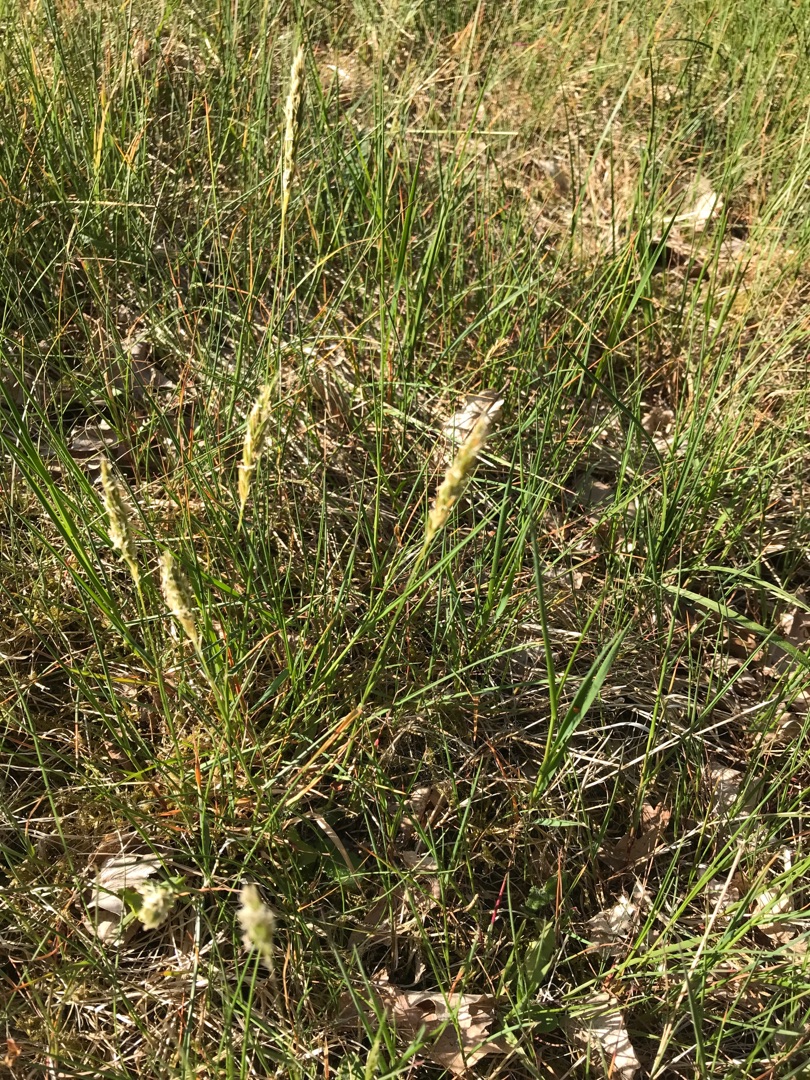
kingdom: Plantae
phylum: Tracheophyta
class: Liliopsida
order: Poales
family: Poaceae
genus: Anthoxanthum
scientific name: Anthoxanthum odoratum
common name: Vellugtende gulaks
